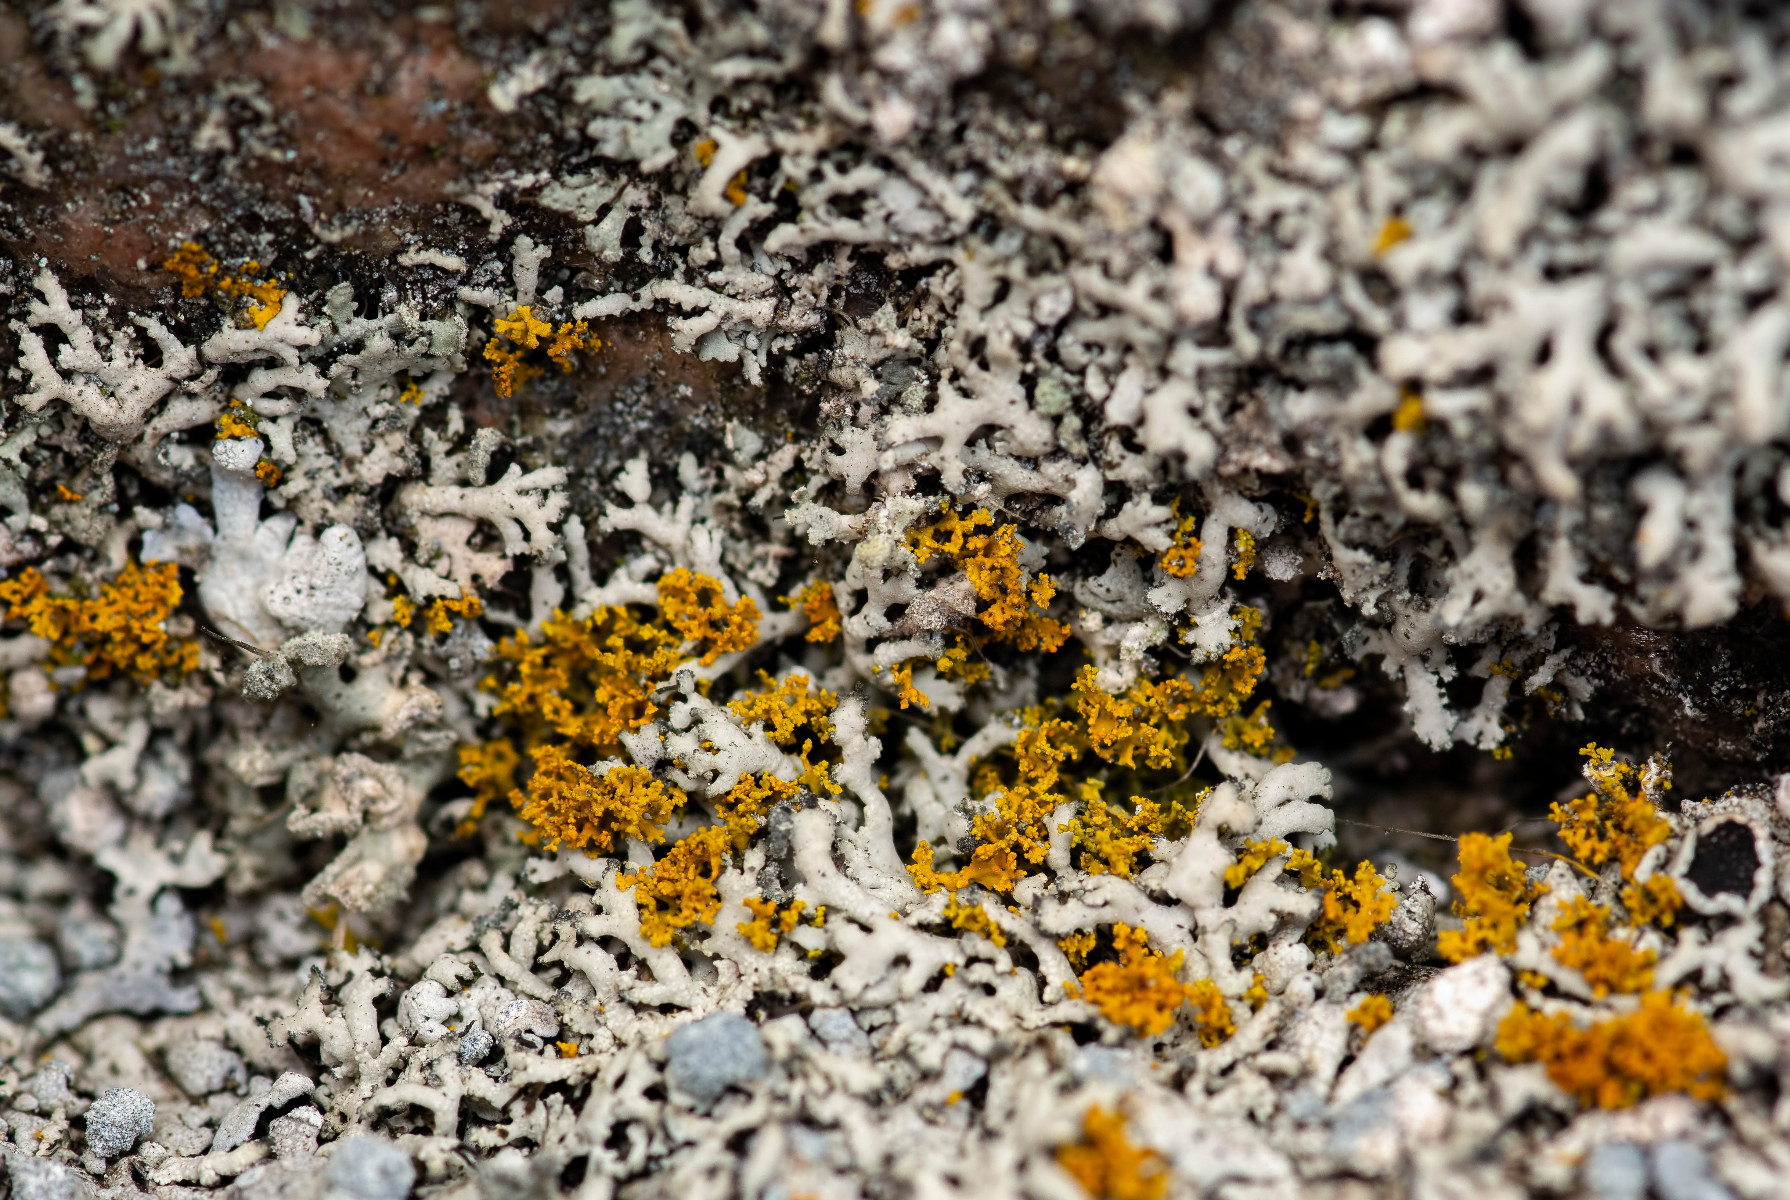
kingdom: Fungi
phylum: Ascomycota
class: Lecanoromycetes
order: Teloschistales
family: Teloschistaceae
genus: Polycauliona
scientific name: Polycauliona candelaria
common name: tue-orangelav
